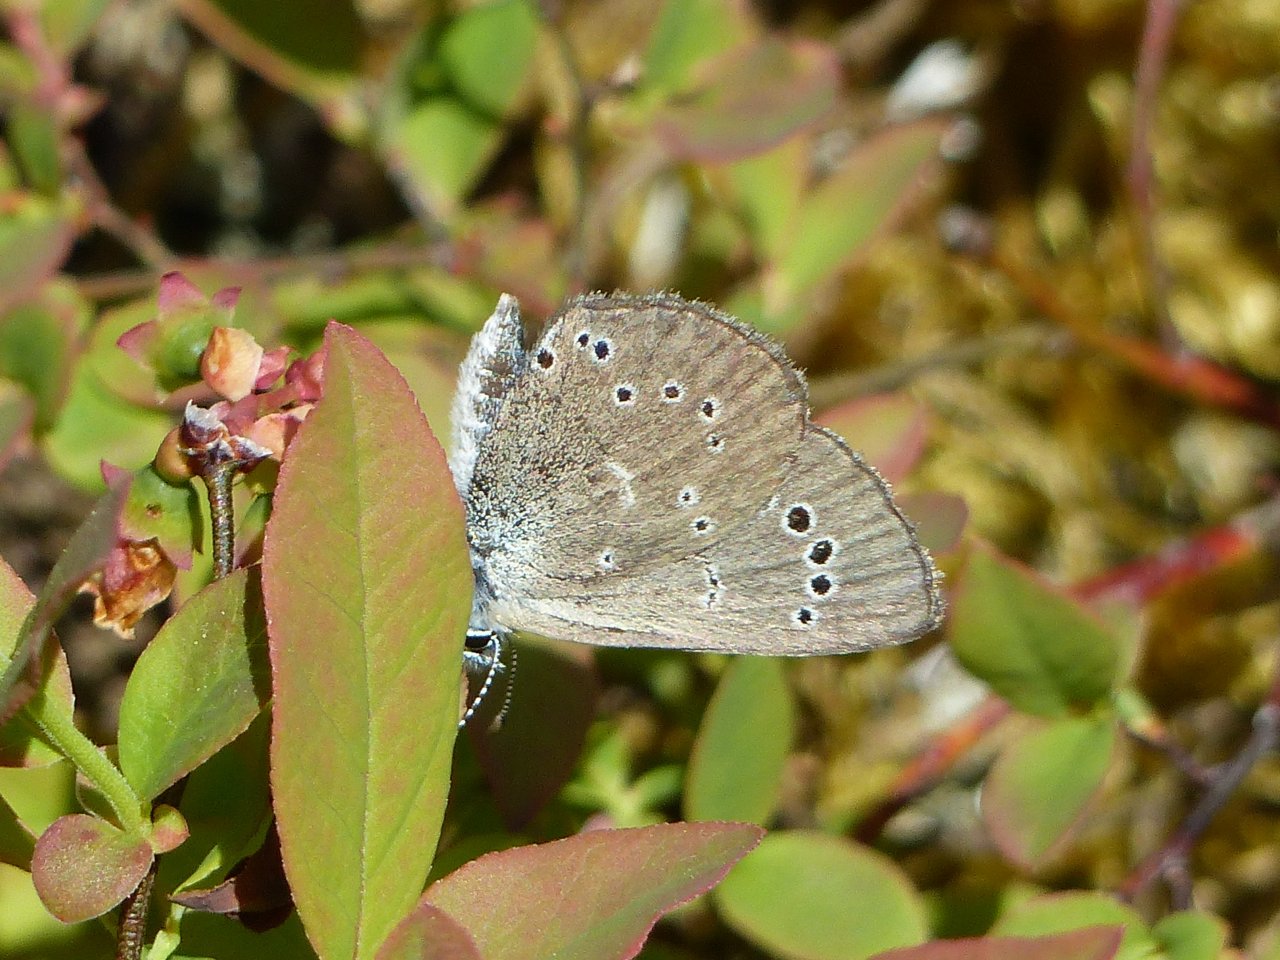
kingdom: Animalia
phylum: Arthropoda
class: Insecta
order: Lepidoptera
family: Lycaenidae
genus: Glaucopsyche
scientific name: Glaucopsyche lygdamus
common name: Silvery Blue
